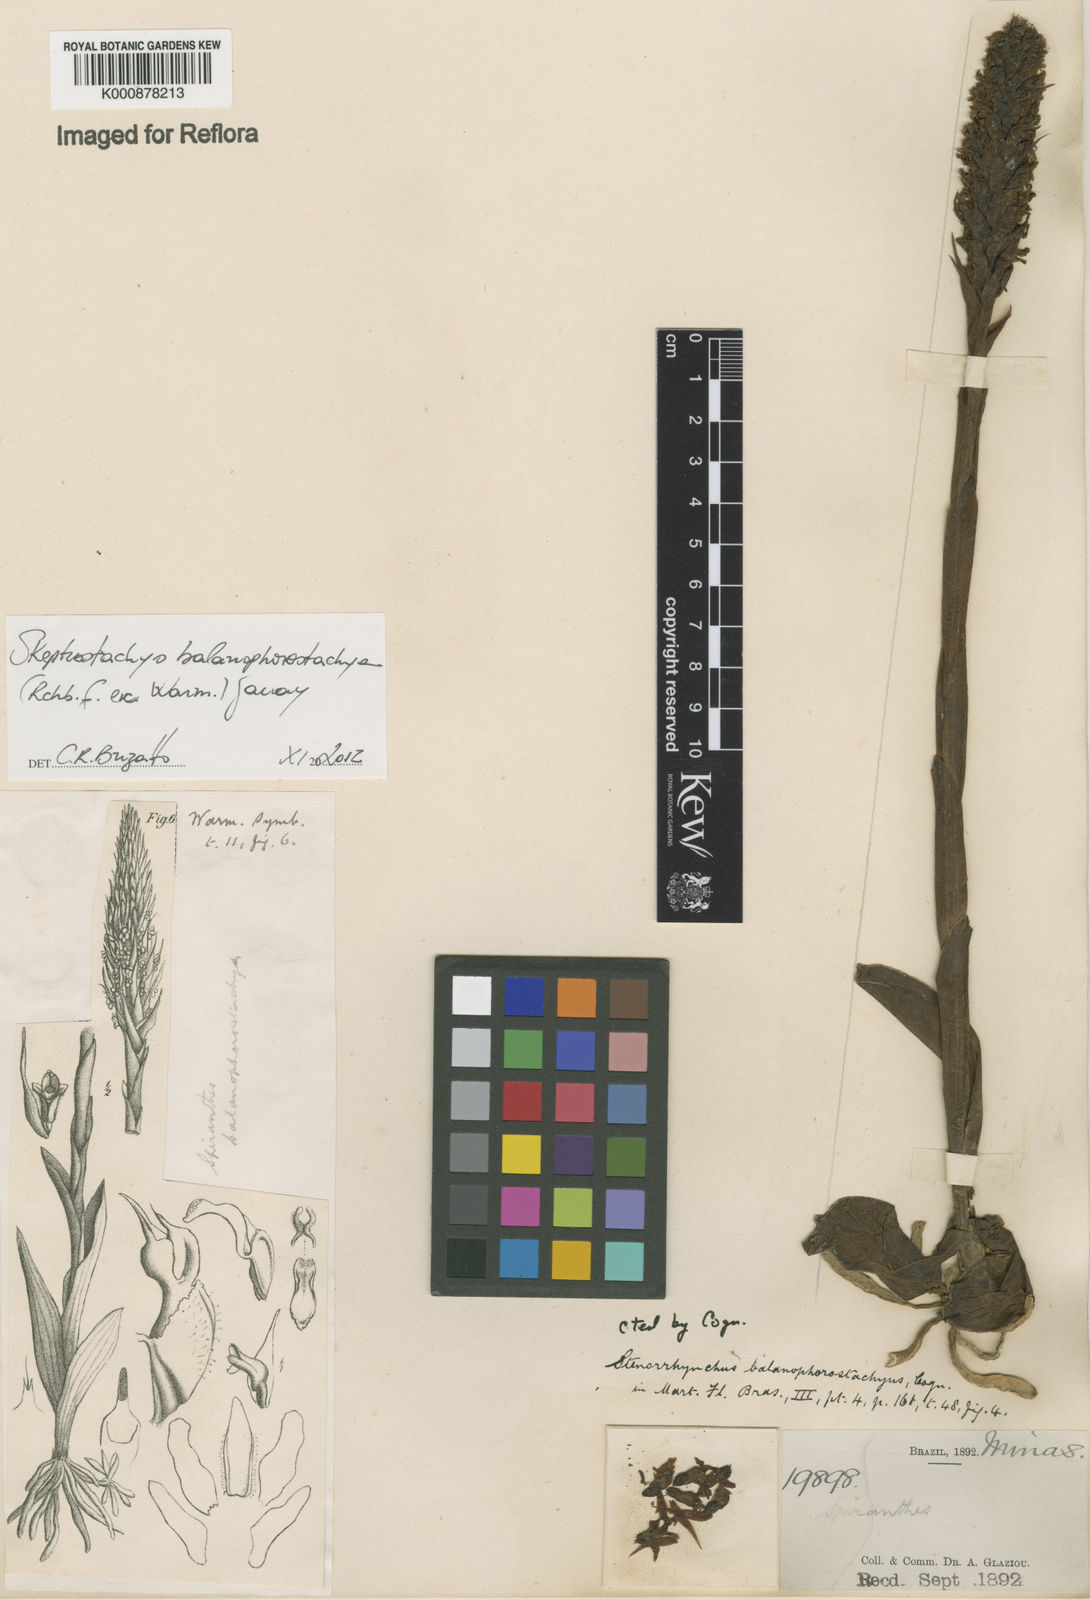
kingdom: Plantae
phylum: Tracheophyta
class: Liliopsida
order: Asparagales
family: Orchidaceae
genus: Skeptrostachys
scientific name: Skeptrostachys balanophorostachya
